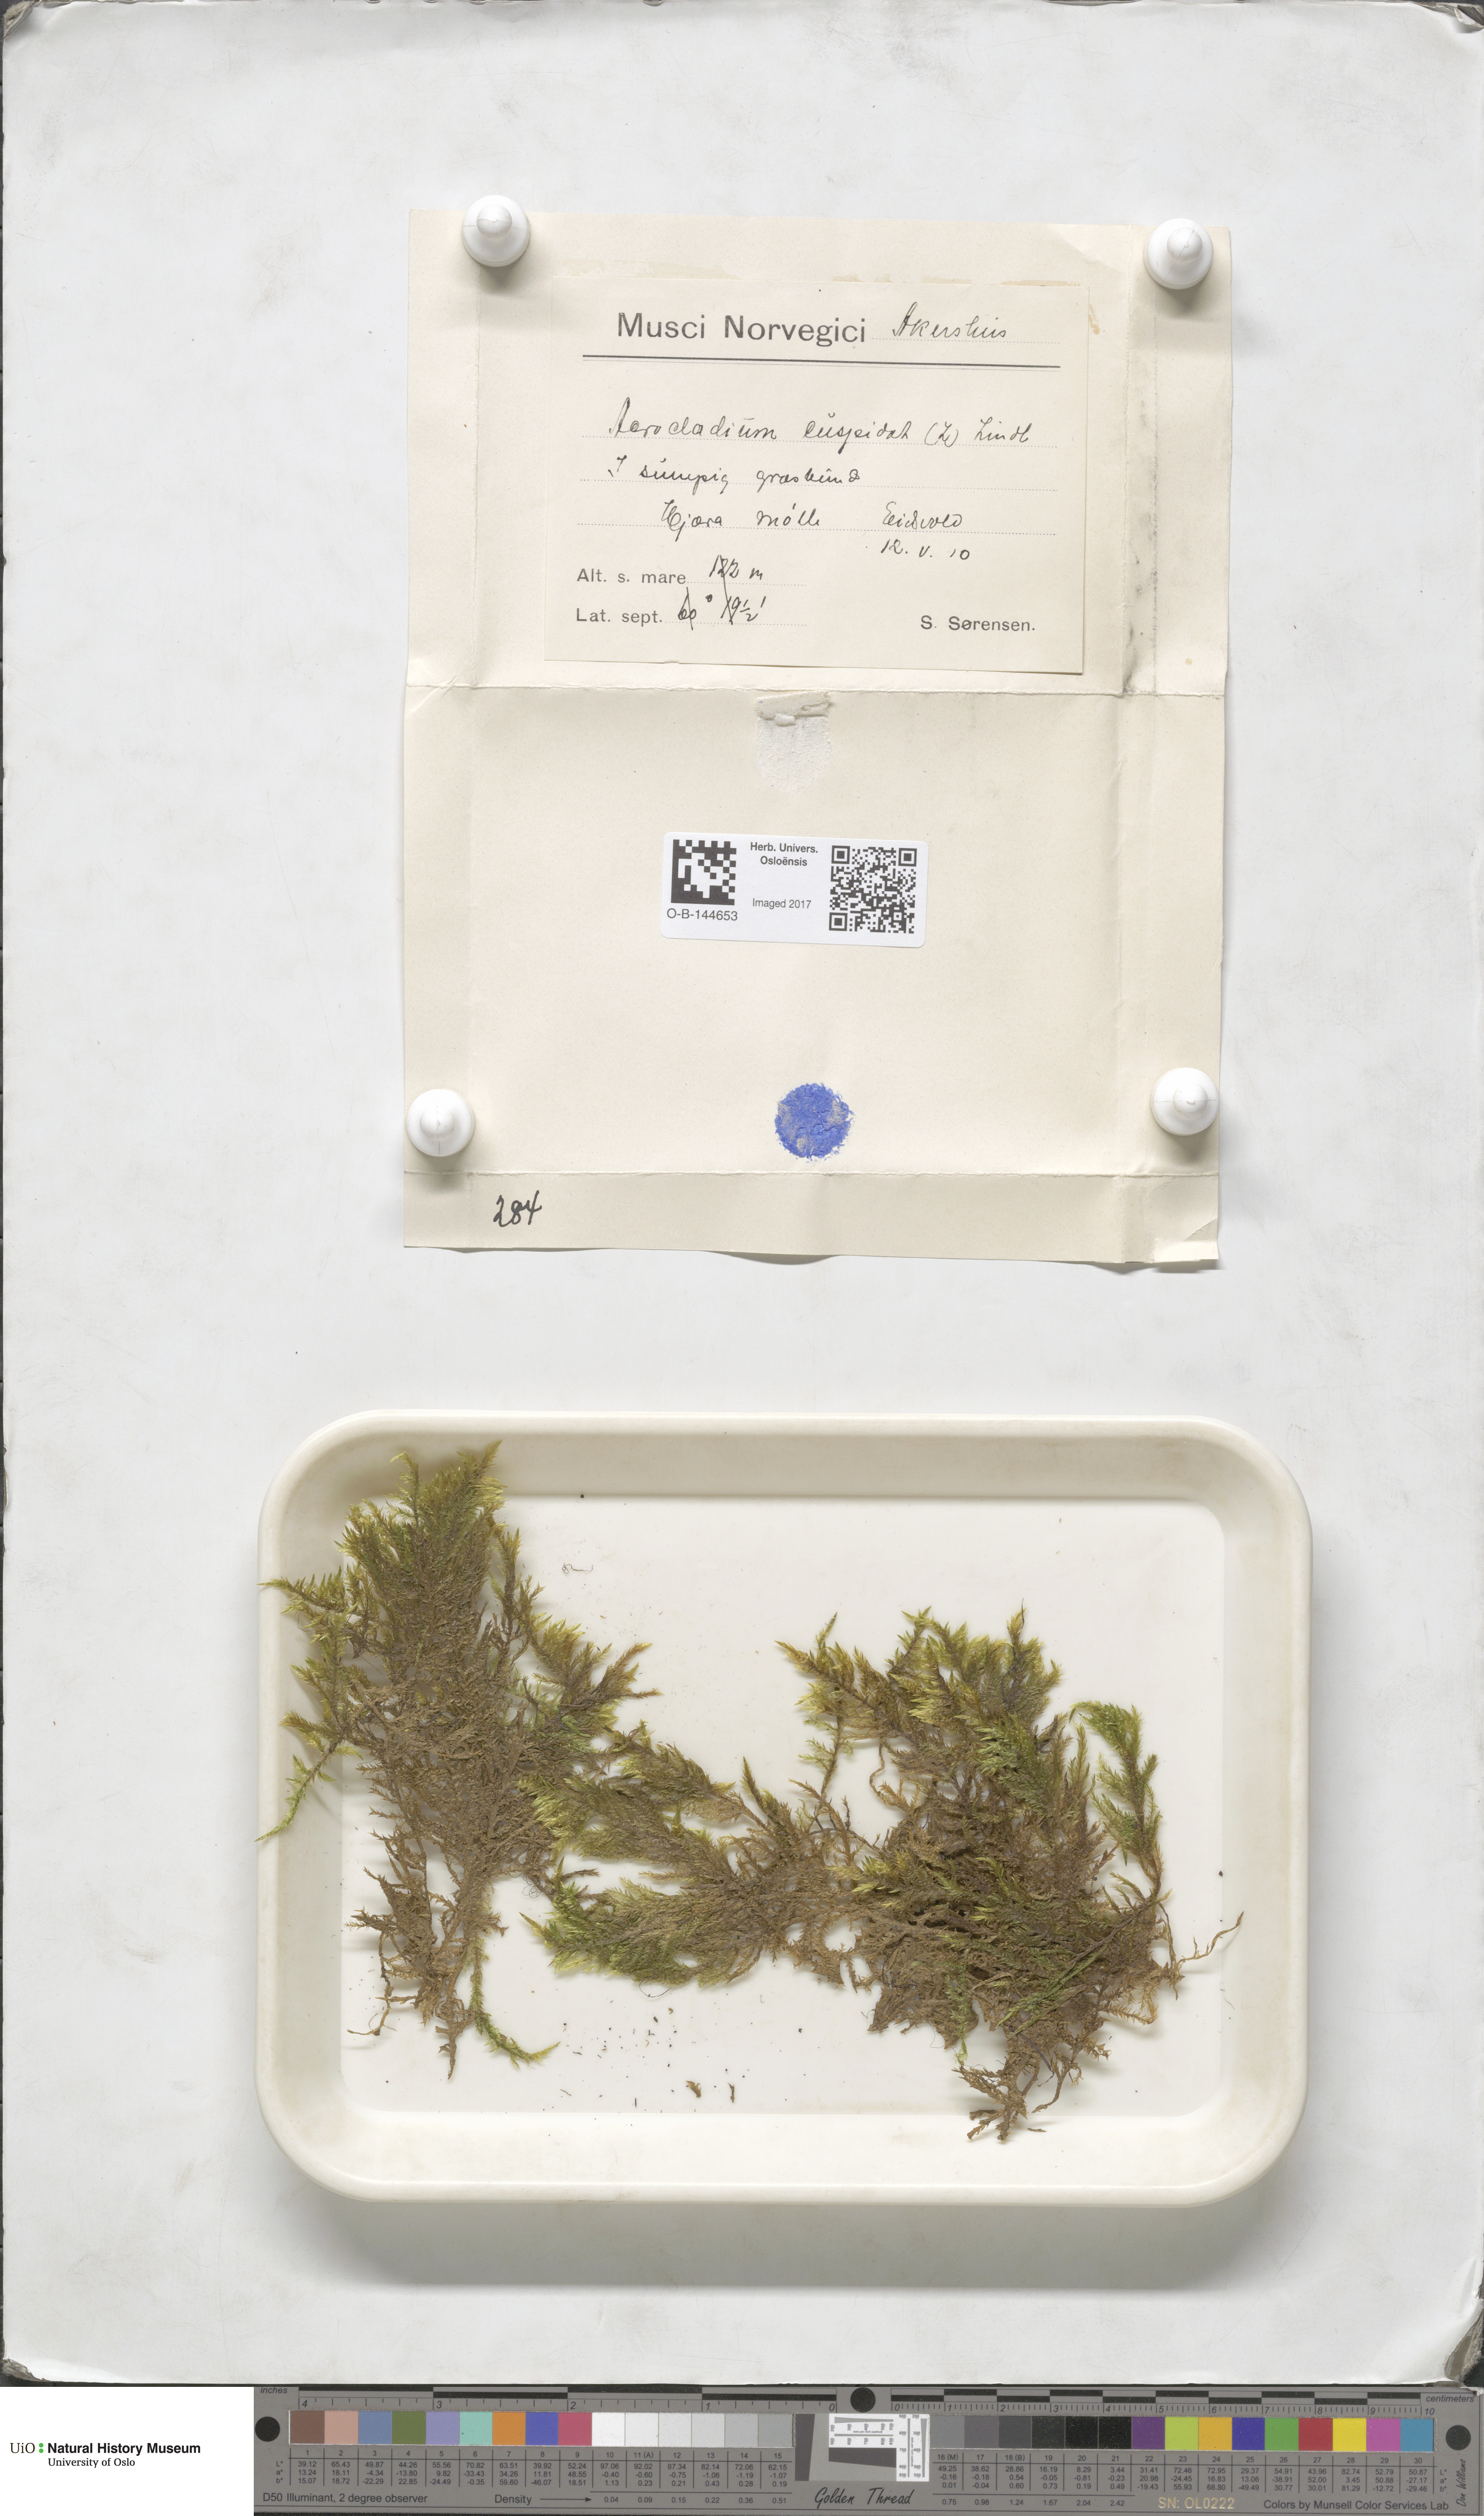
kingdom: Plantae
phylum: Bryophyta
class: Bryopsida
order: Hypnales
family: Pylaisiaceae
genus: Calliergonella
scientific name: Calliergonella cuspidata
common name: Common large wetland moss
